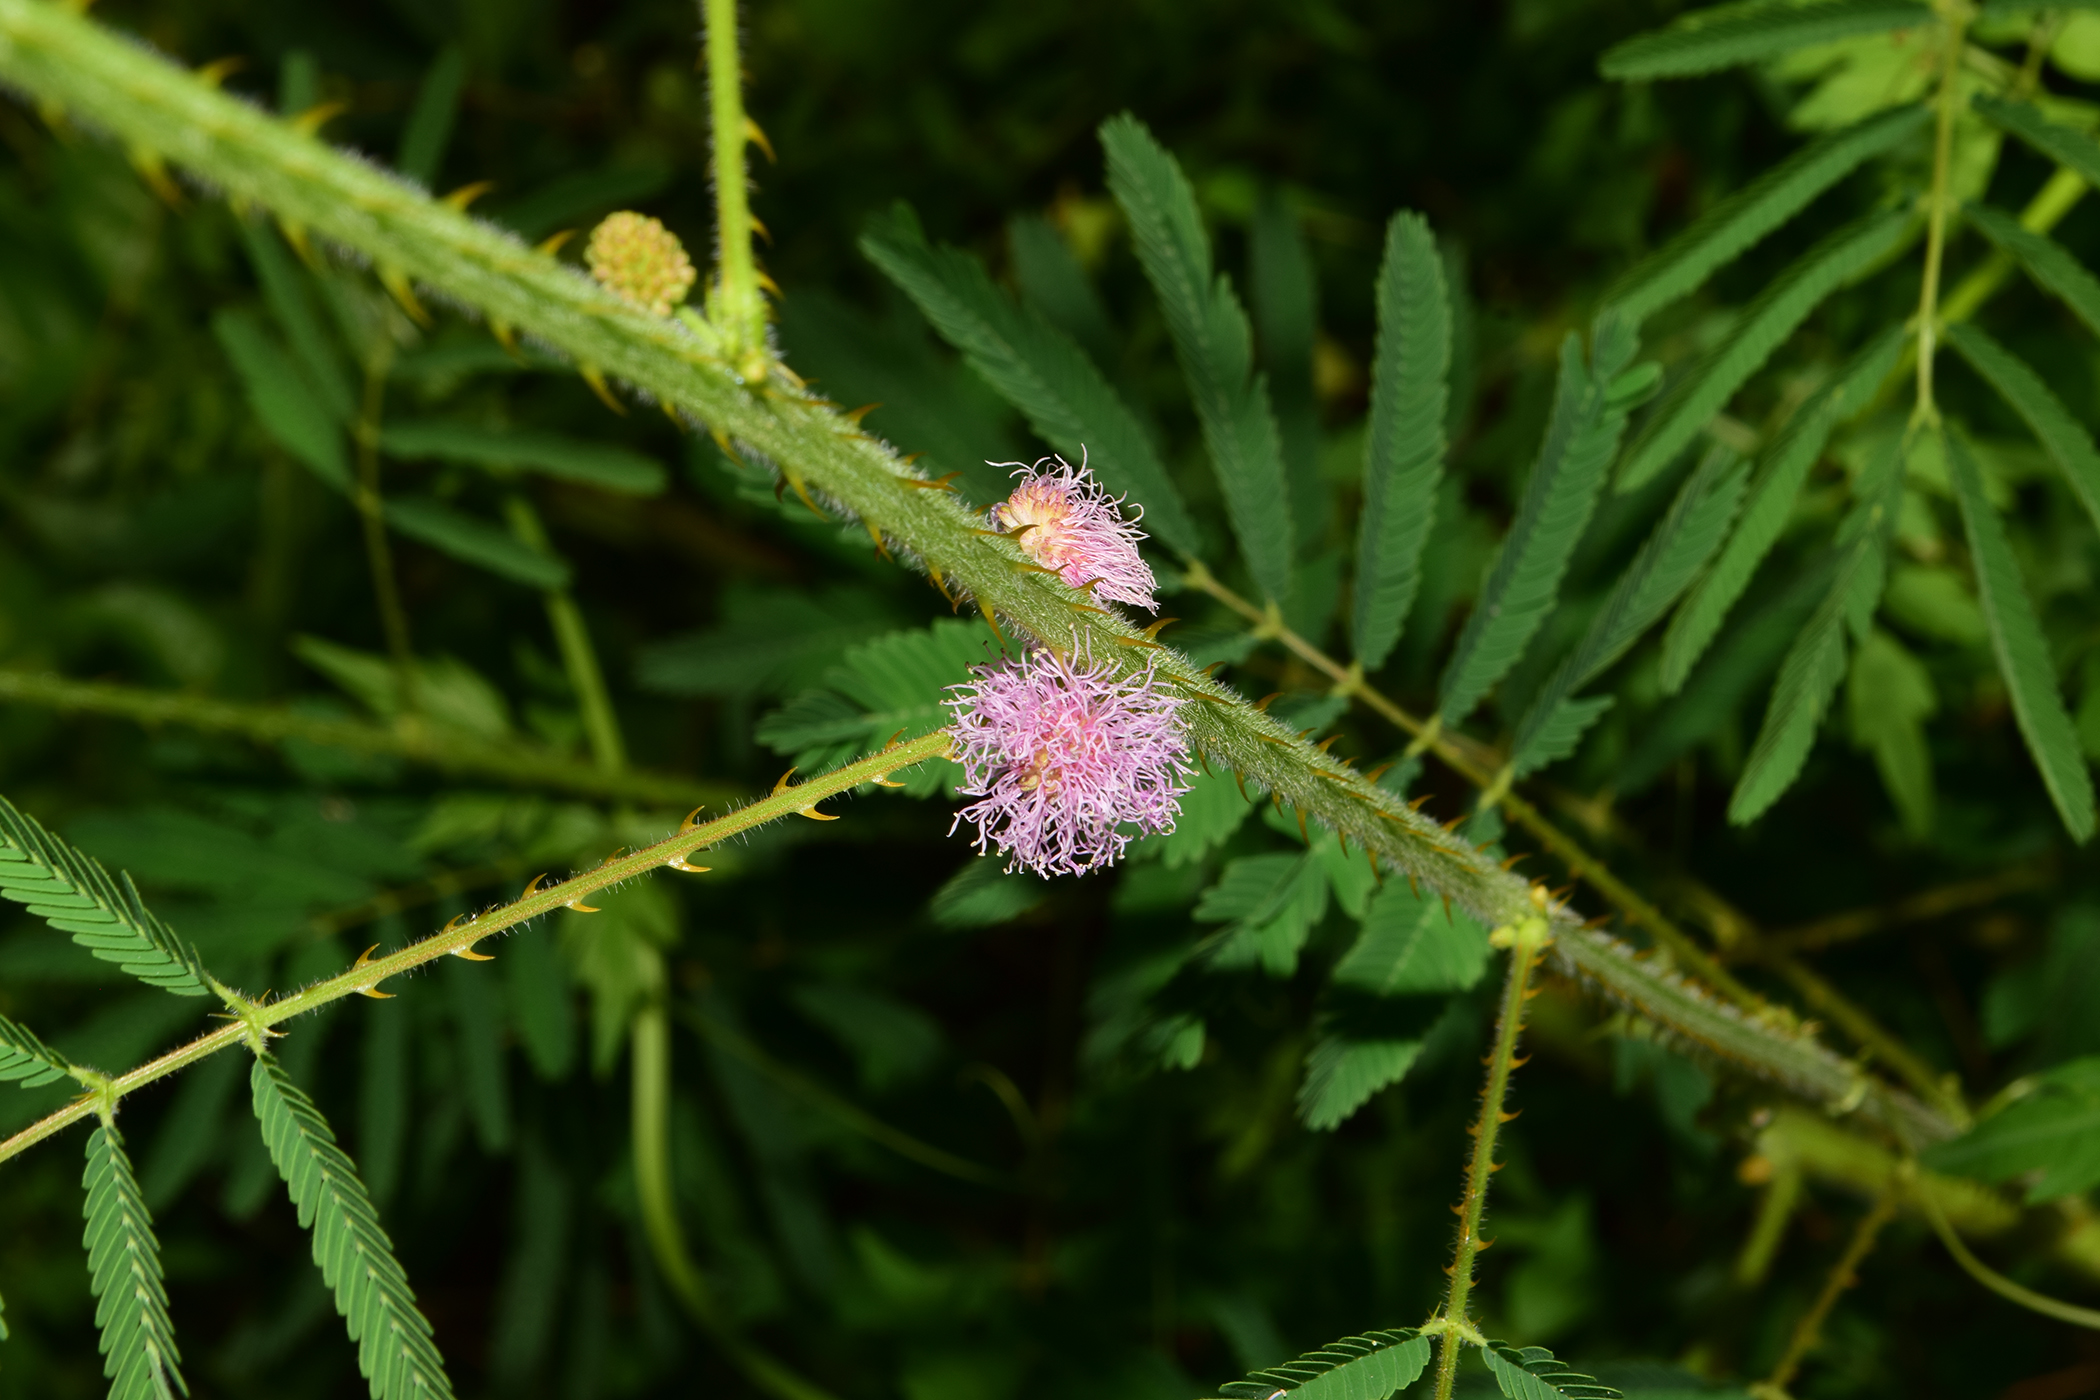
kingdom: Plantae
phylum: Tracheophyta
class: Magnoliopsida
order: Fabales
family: Fabaceae
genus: Mimosa
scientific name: Mimosa diplotricha
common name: Giant sensitive-plant
